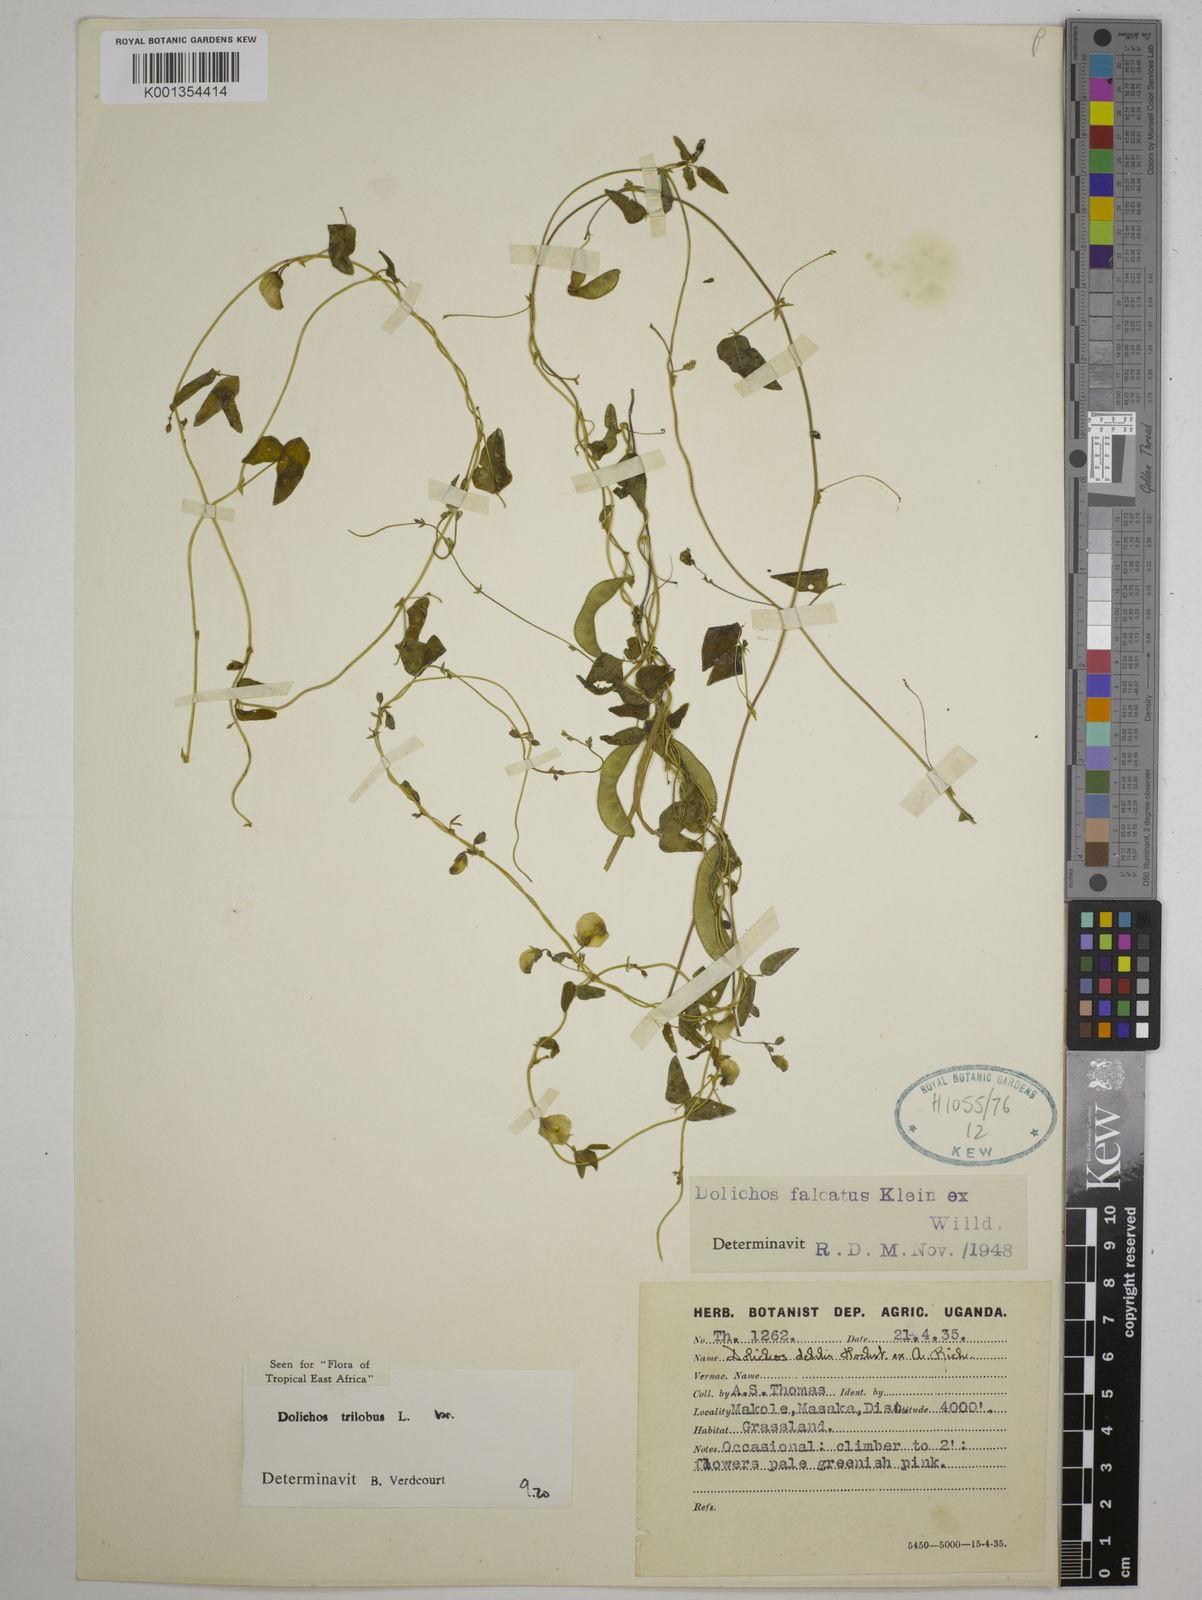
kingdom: Plantae
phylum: Tracheophyta
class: Magnoliopsida
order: Fabales
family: Fabaceae
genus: Dolichos
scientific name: Dolichos
